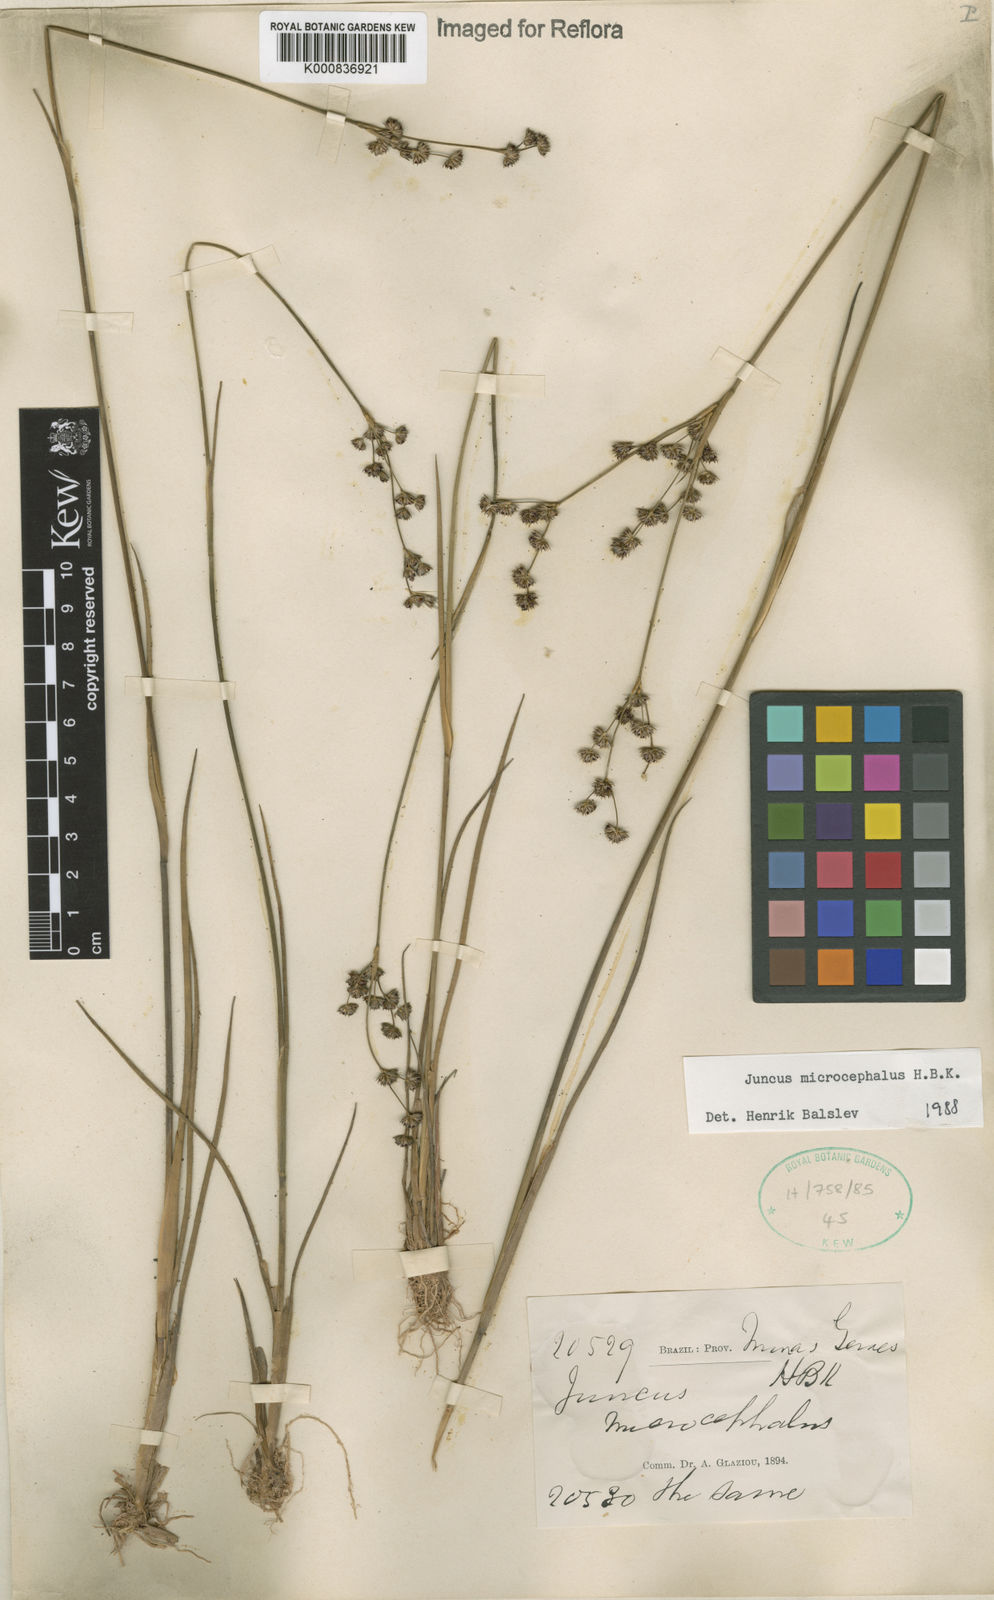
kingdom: Plantae
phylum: Tracheophyta
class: Liliopsida
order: Poales
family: Juncaceae
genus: Juncus
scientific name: Juncus microcephalus
